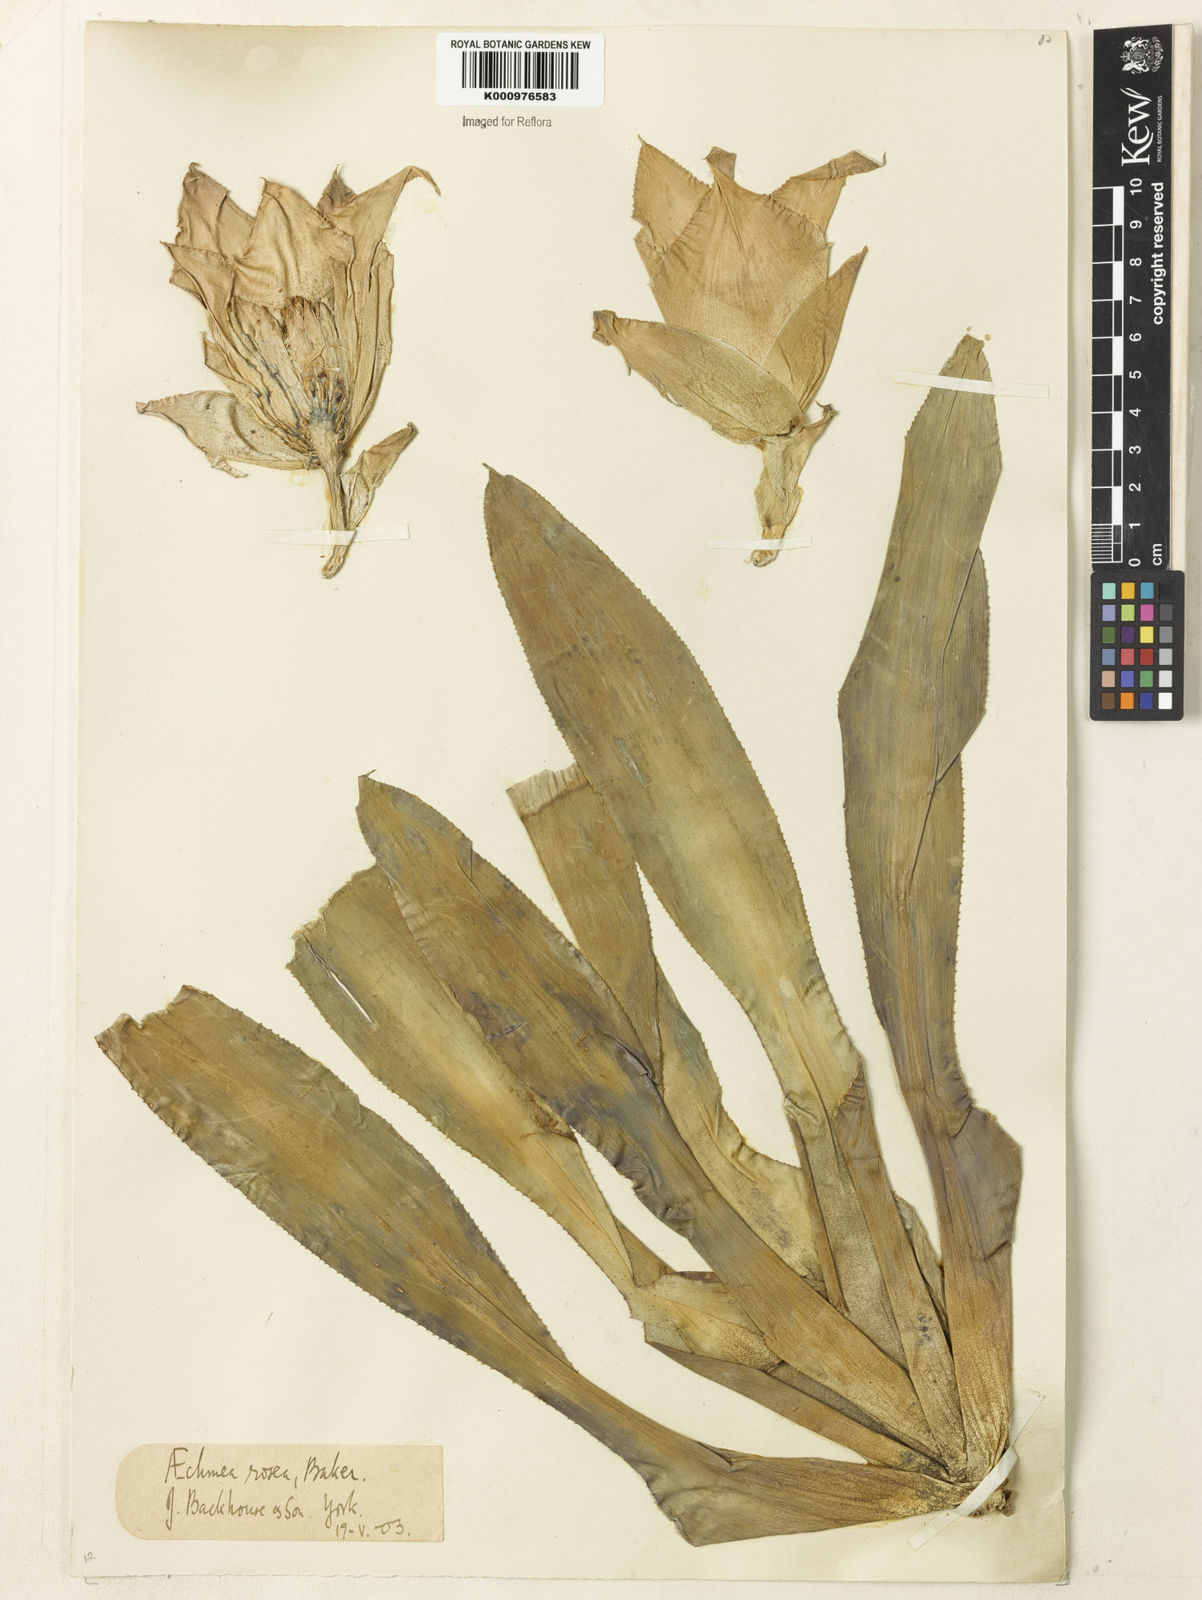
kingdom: Plantae
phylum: Tracheophyta
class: Liliopsida
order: Poales
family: Bromeliaceae
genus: Hohenbergia
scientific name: Hohenbergia augusta
